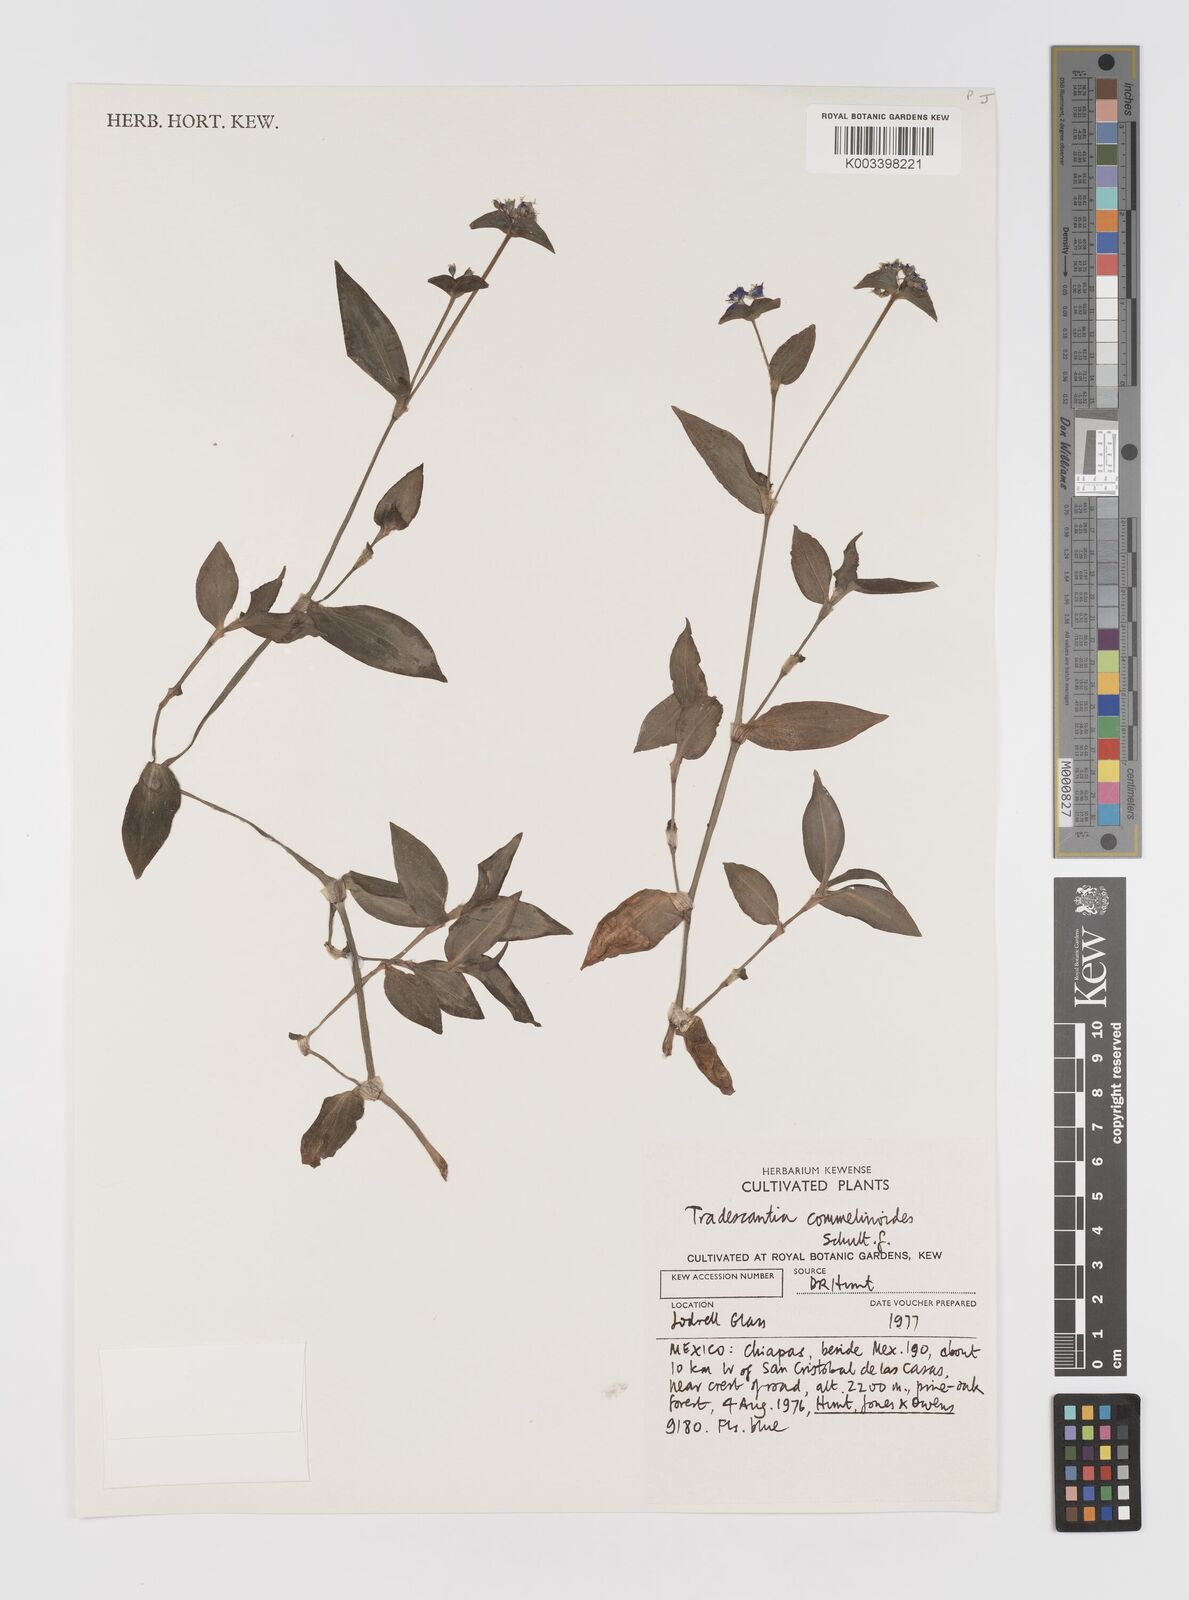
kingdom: Plantae
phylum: Tracheophyta
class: Liliopsida
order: Commelinales
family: Commelinaceae
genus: Tradescantia
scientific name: Tradescantia commelinoides
